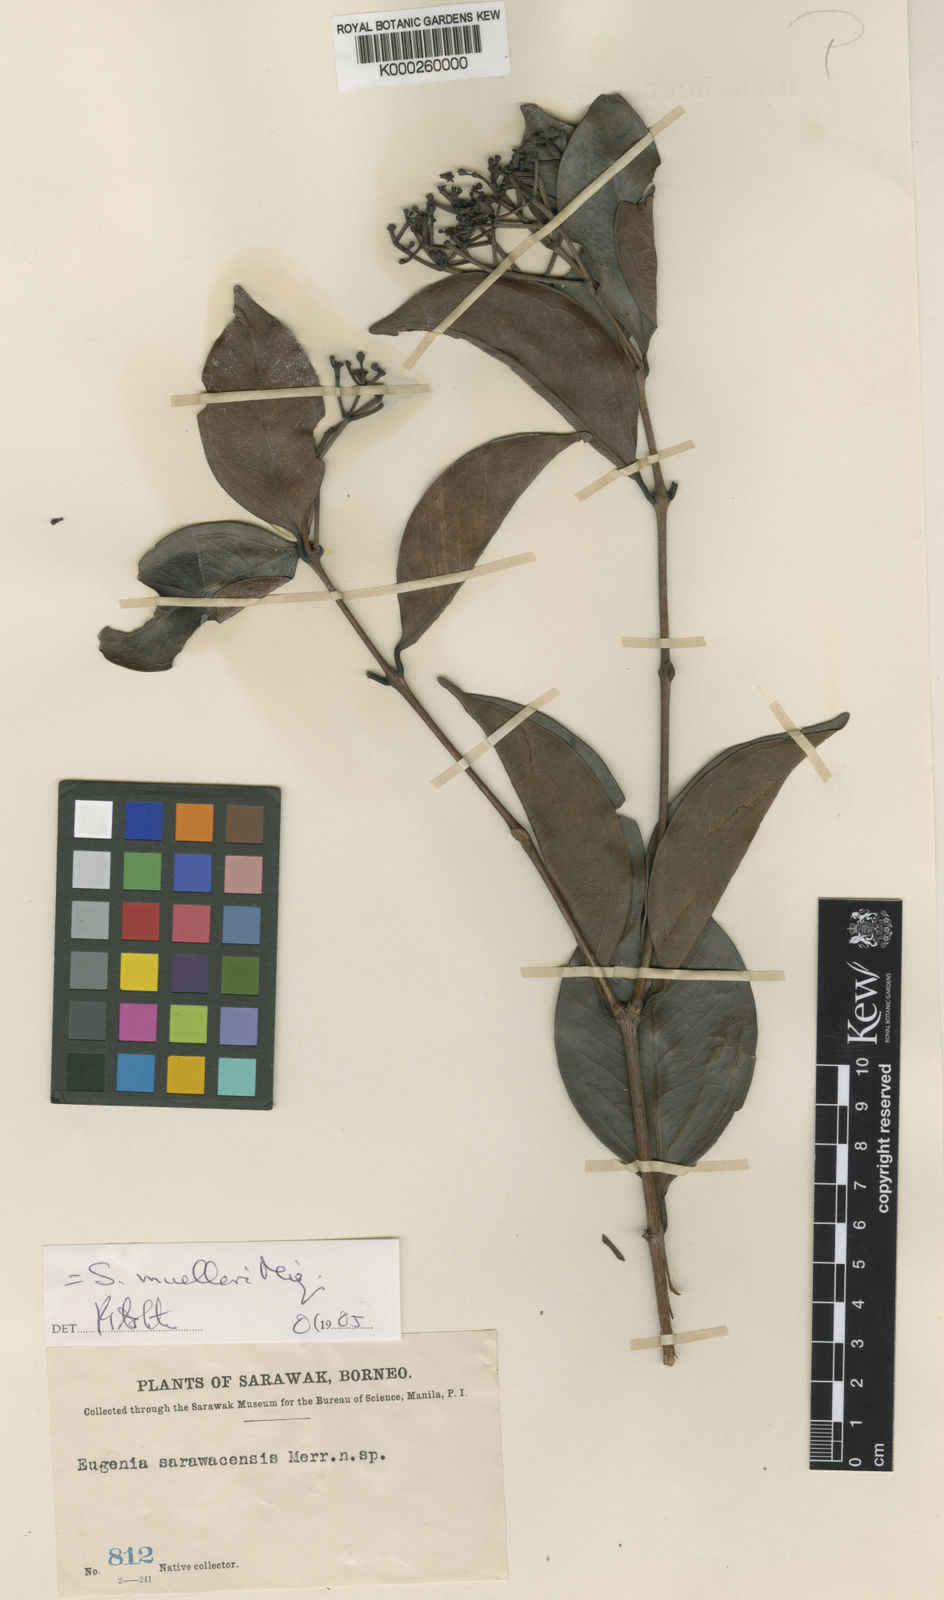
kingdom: Plantae
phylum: Tracheophyta
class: Magnoliopsida
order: Myrtales
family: Myrtaceae
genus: Syzygium
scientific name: Syzygium muelleri
